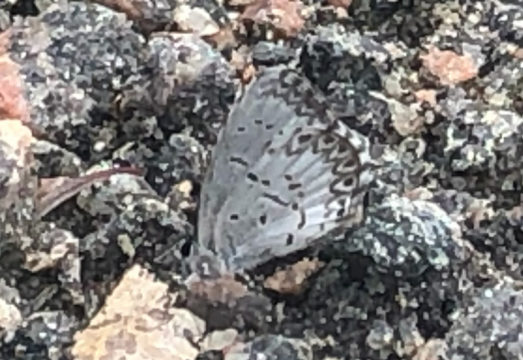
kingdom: Animalia
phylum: Arthropoda
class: Insecta
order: Lepidoptera
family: Lycaenidae
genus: Celastrina
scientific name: Celastrina lucia
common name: Northern Spring Azure
